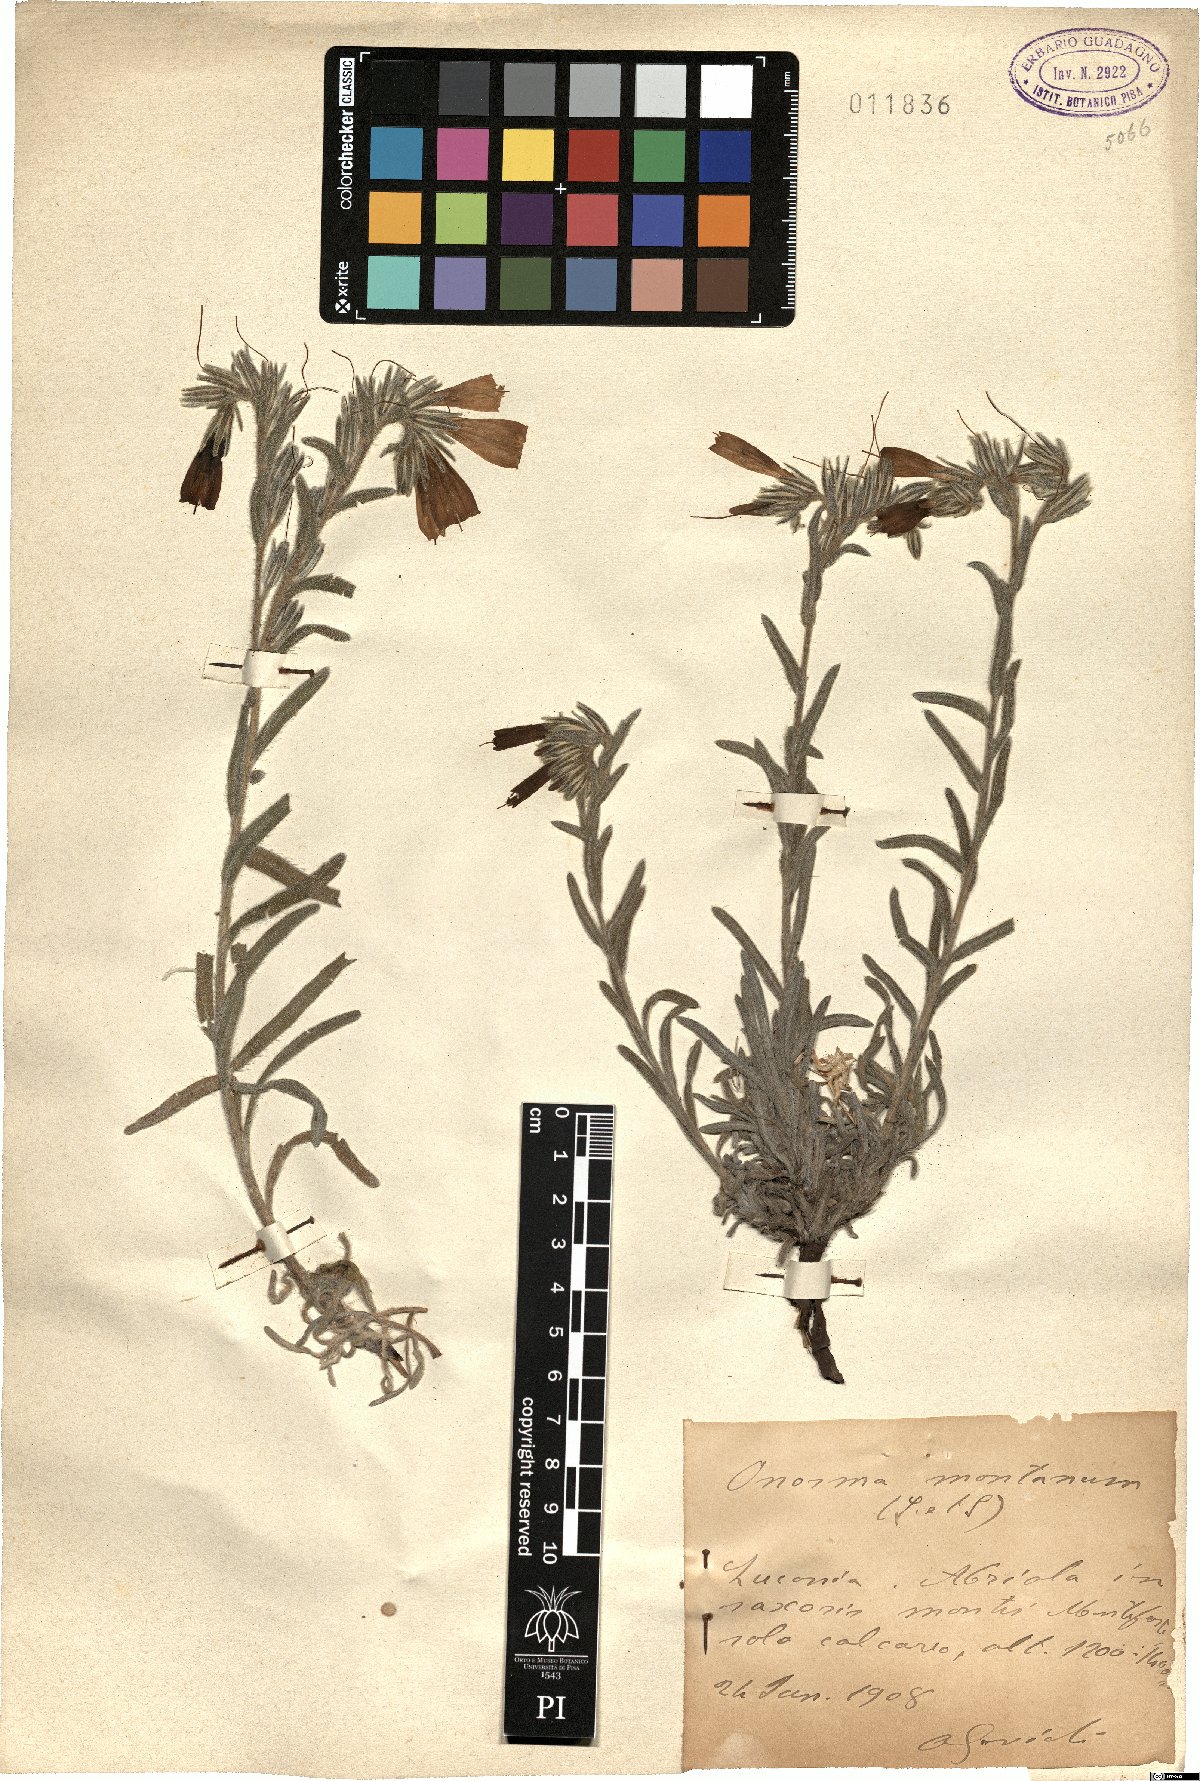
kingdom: Plantae
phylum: Tracheophyta
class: Magnoliopsida
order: Boraginales
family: Boraginaceae
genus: Onosma
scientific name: Onosma montana
